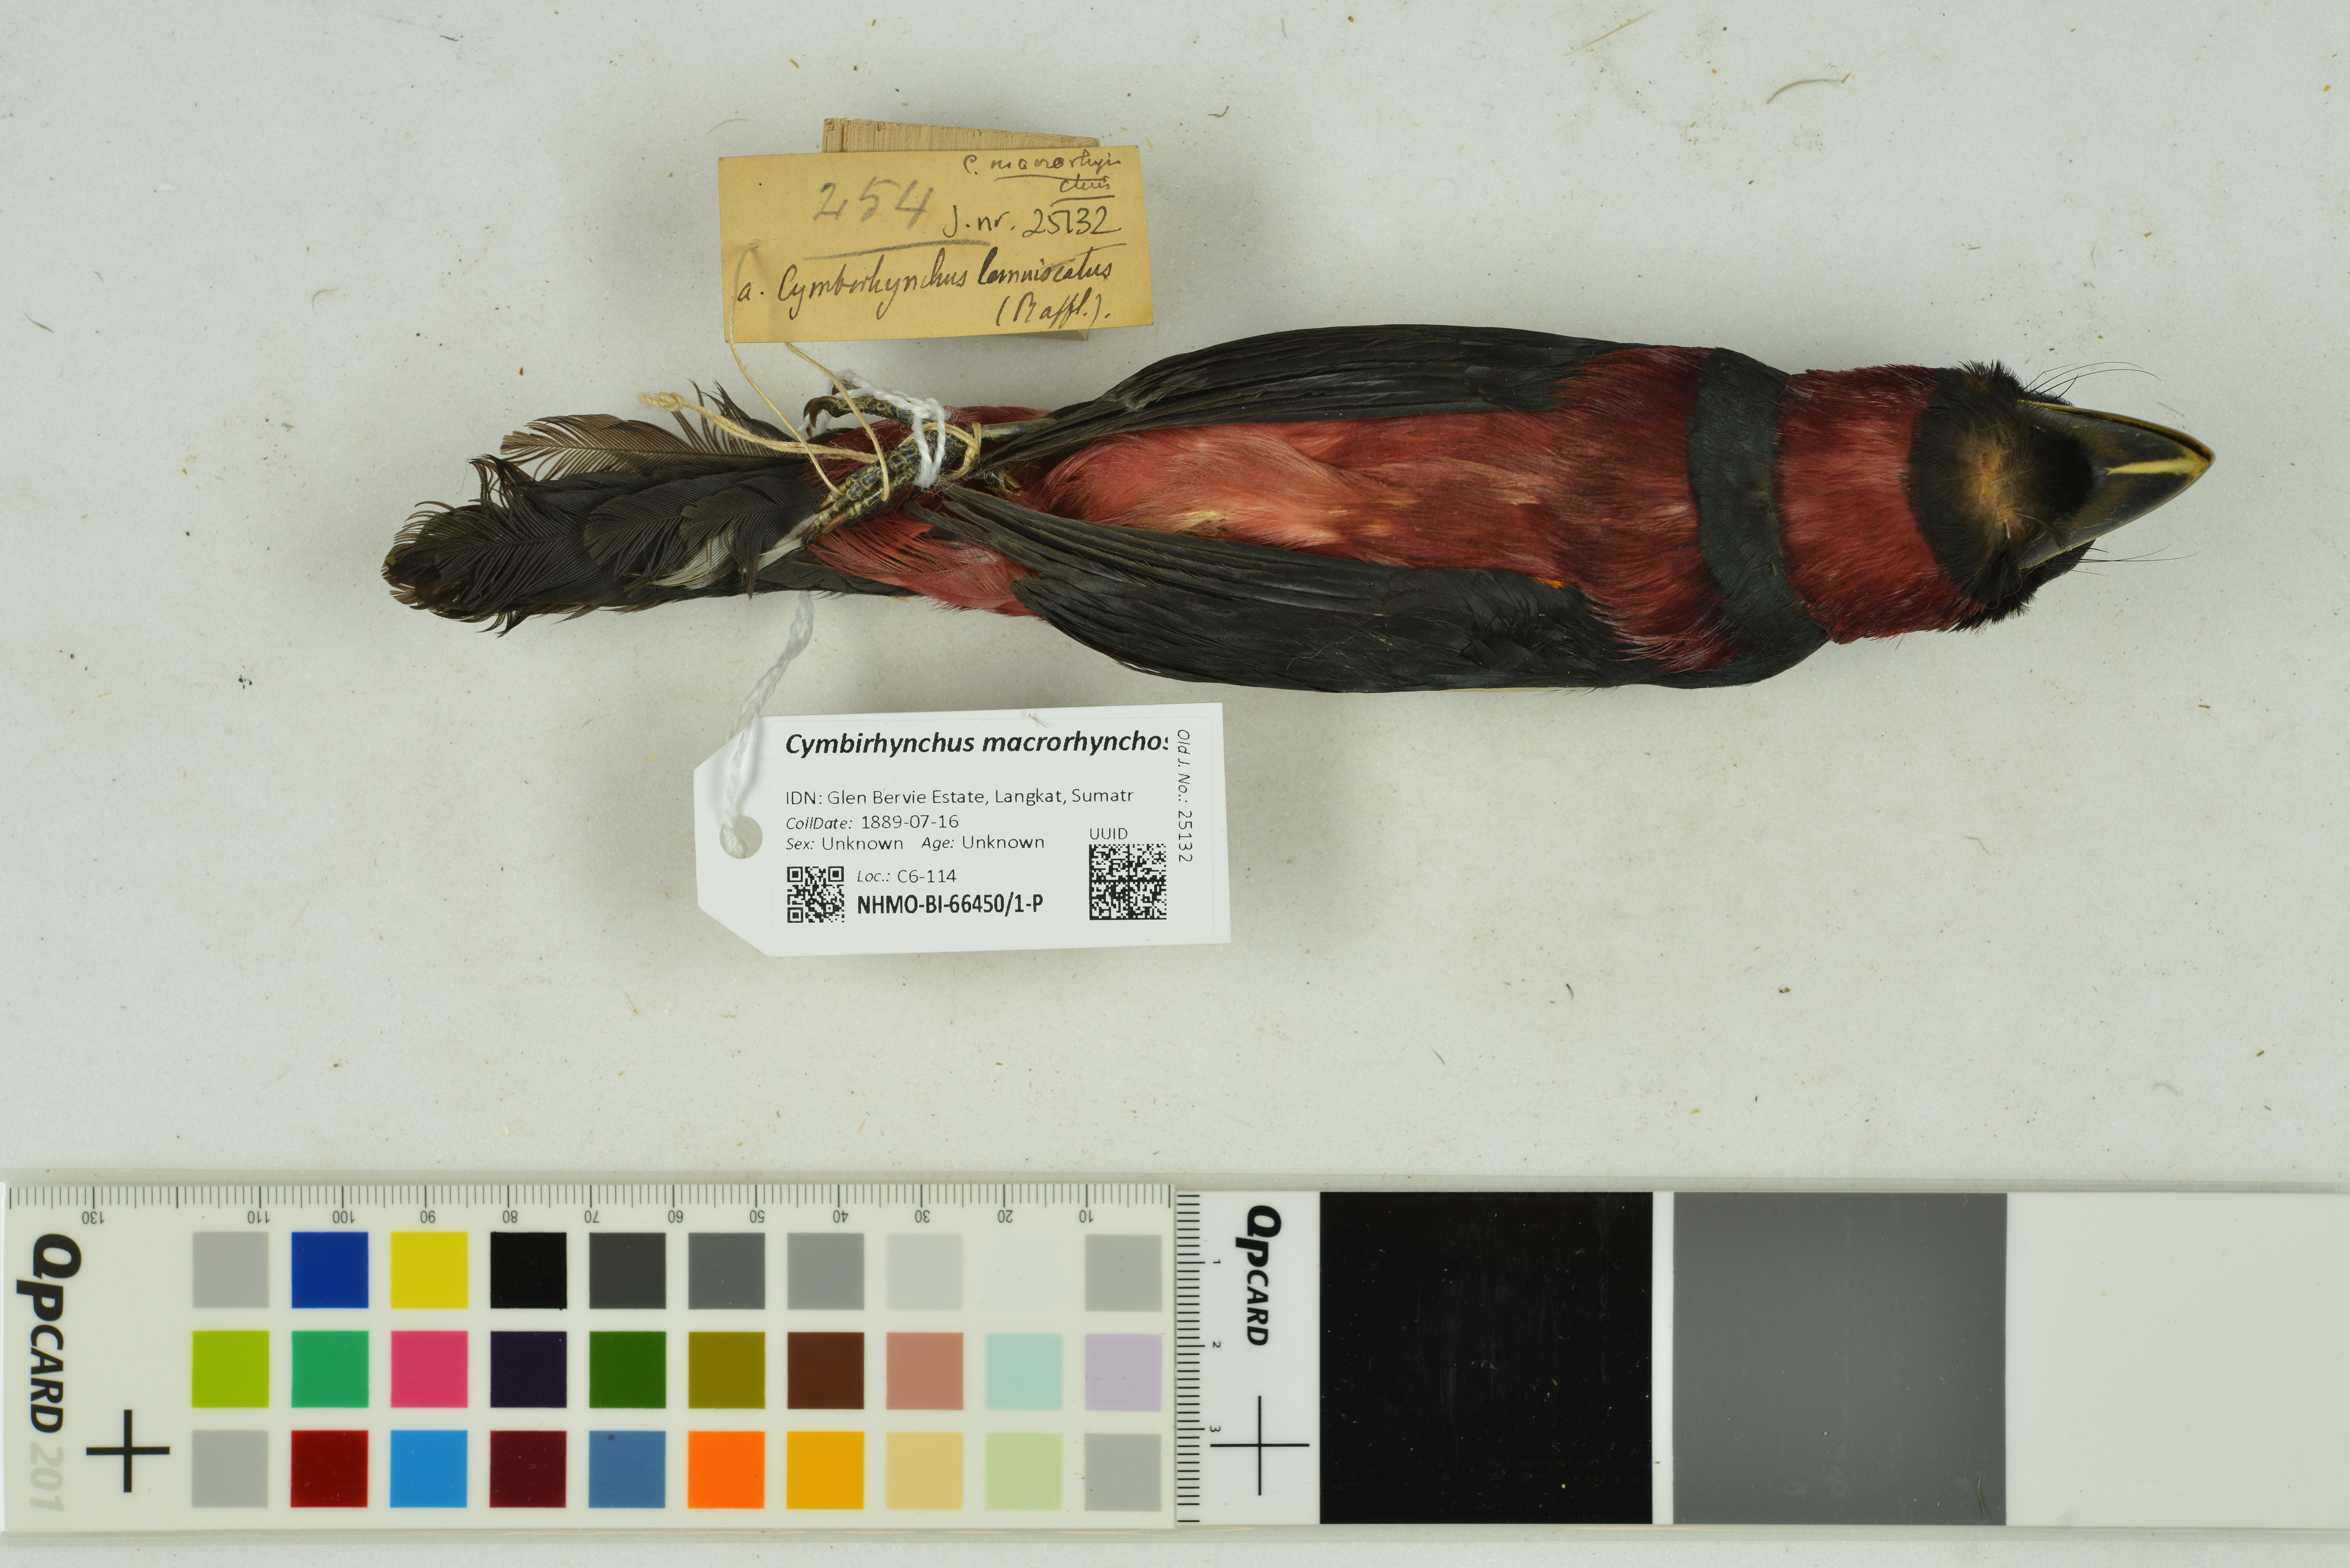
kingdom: Animalia
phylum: Chordata
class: Aves
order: Passeriformes
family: Eurylaimidae
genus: Cymbirhynchus
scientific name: Cymbirhynchus macrorhynchos
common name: Black-and-red broadbill
